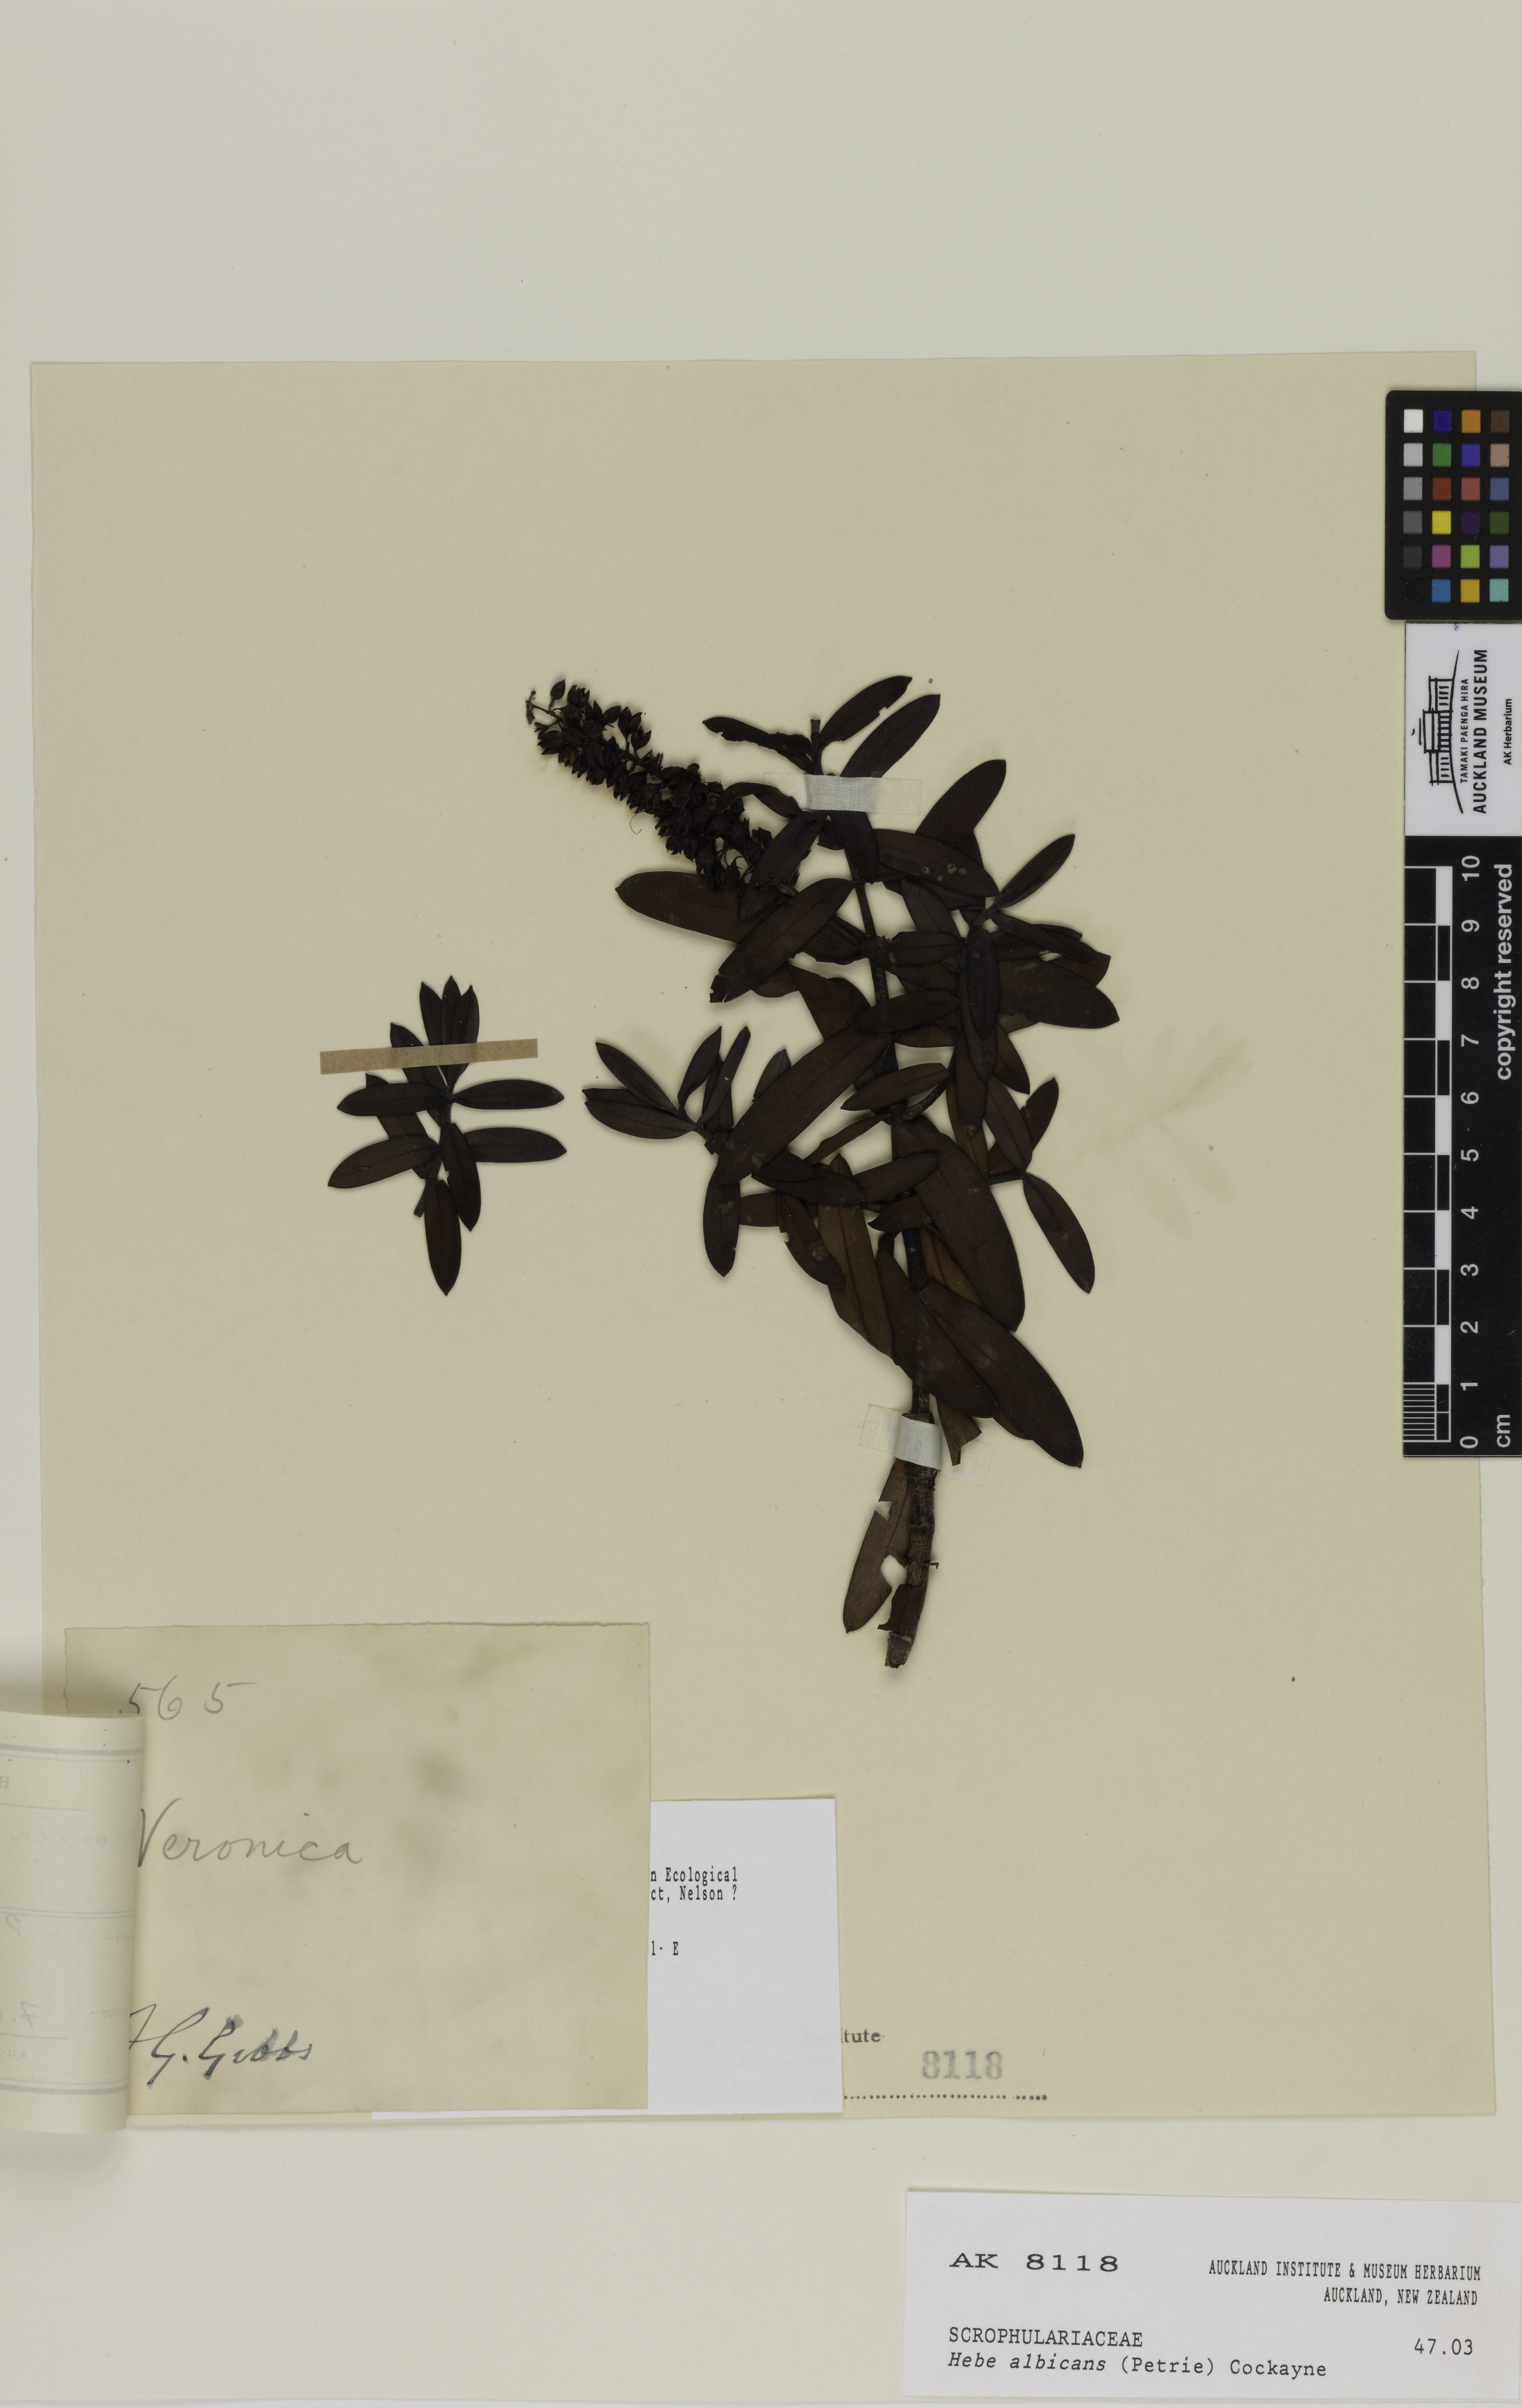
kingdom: Plantae
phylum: Tracheophyta
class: Magnoliopsida
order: Lamiales
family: Plantaginaceae
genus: Veronica
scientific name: Veronica albicans
